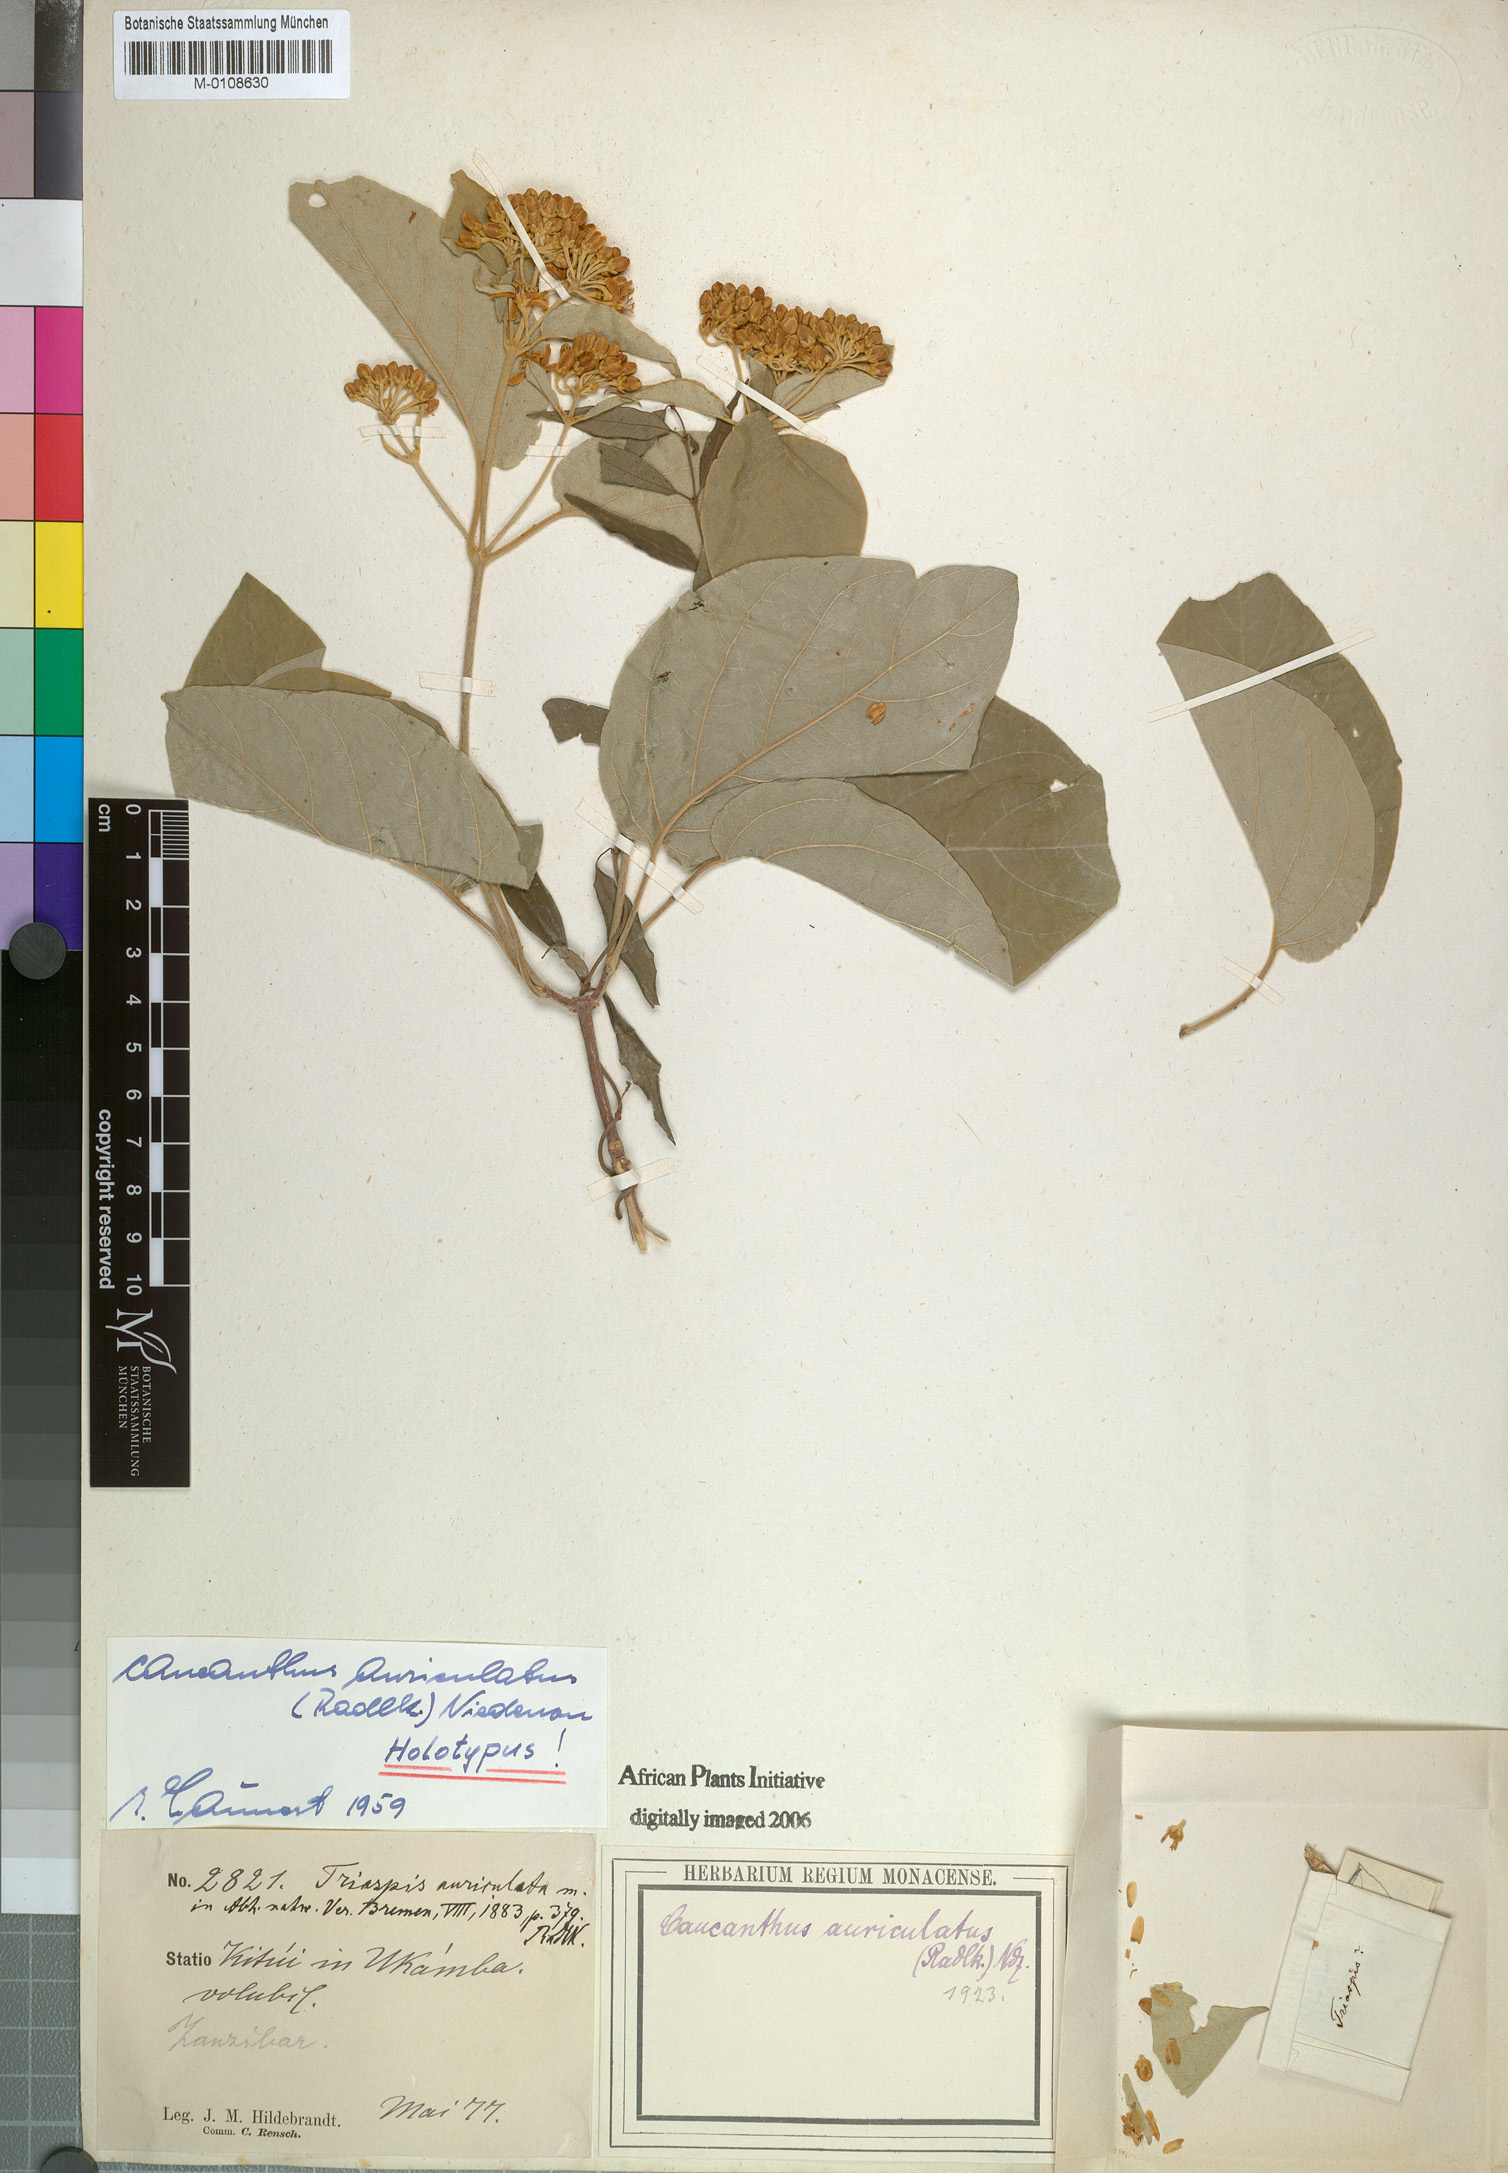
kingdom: Plantae
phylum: Tracheophyta
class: Magnoliopsida
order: Malpighiales
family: Malpighiaceae
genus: Caucanthus
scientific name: Caucanthus auriculatus
